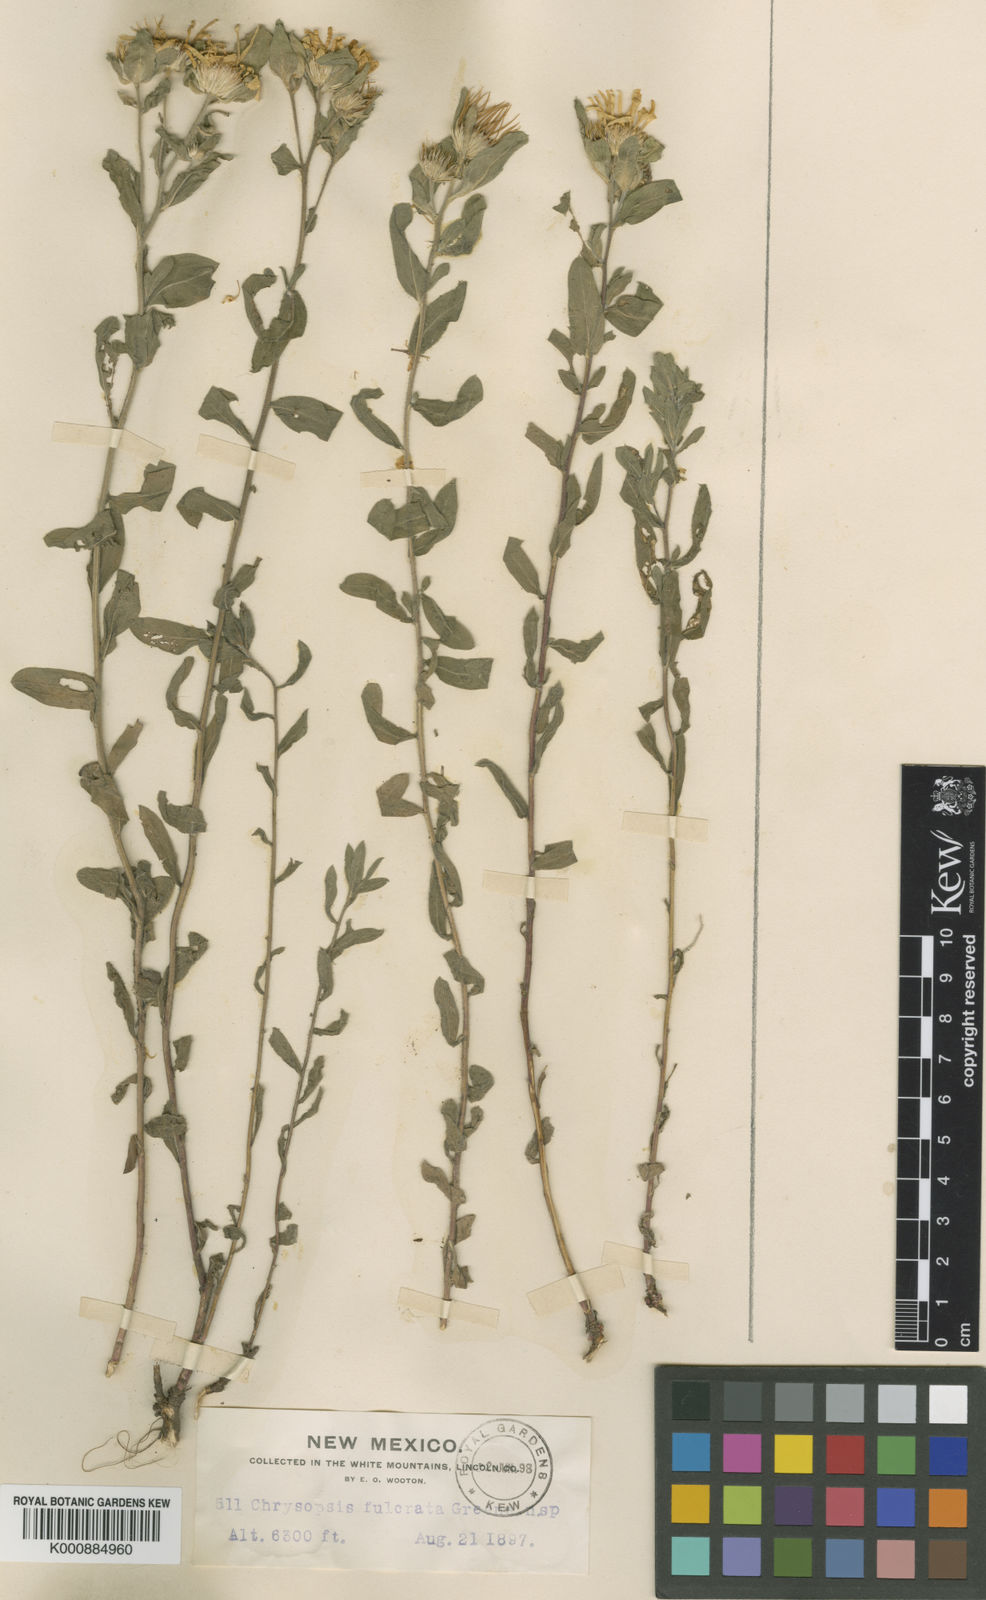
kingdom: Plantae
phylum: Tracheophyta
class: Magnoliopsida
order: Asterales
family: Asteraceae
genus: Heterotheca
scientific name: Heterotheca fulcrata
